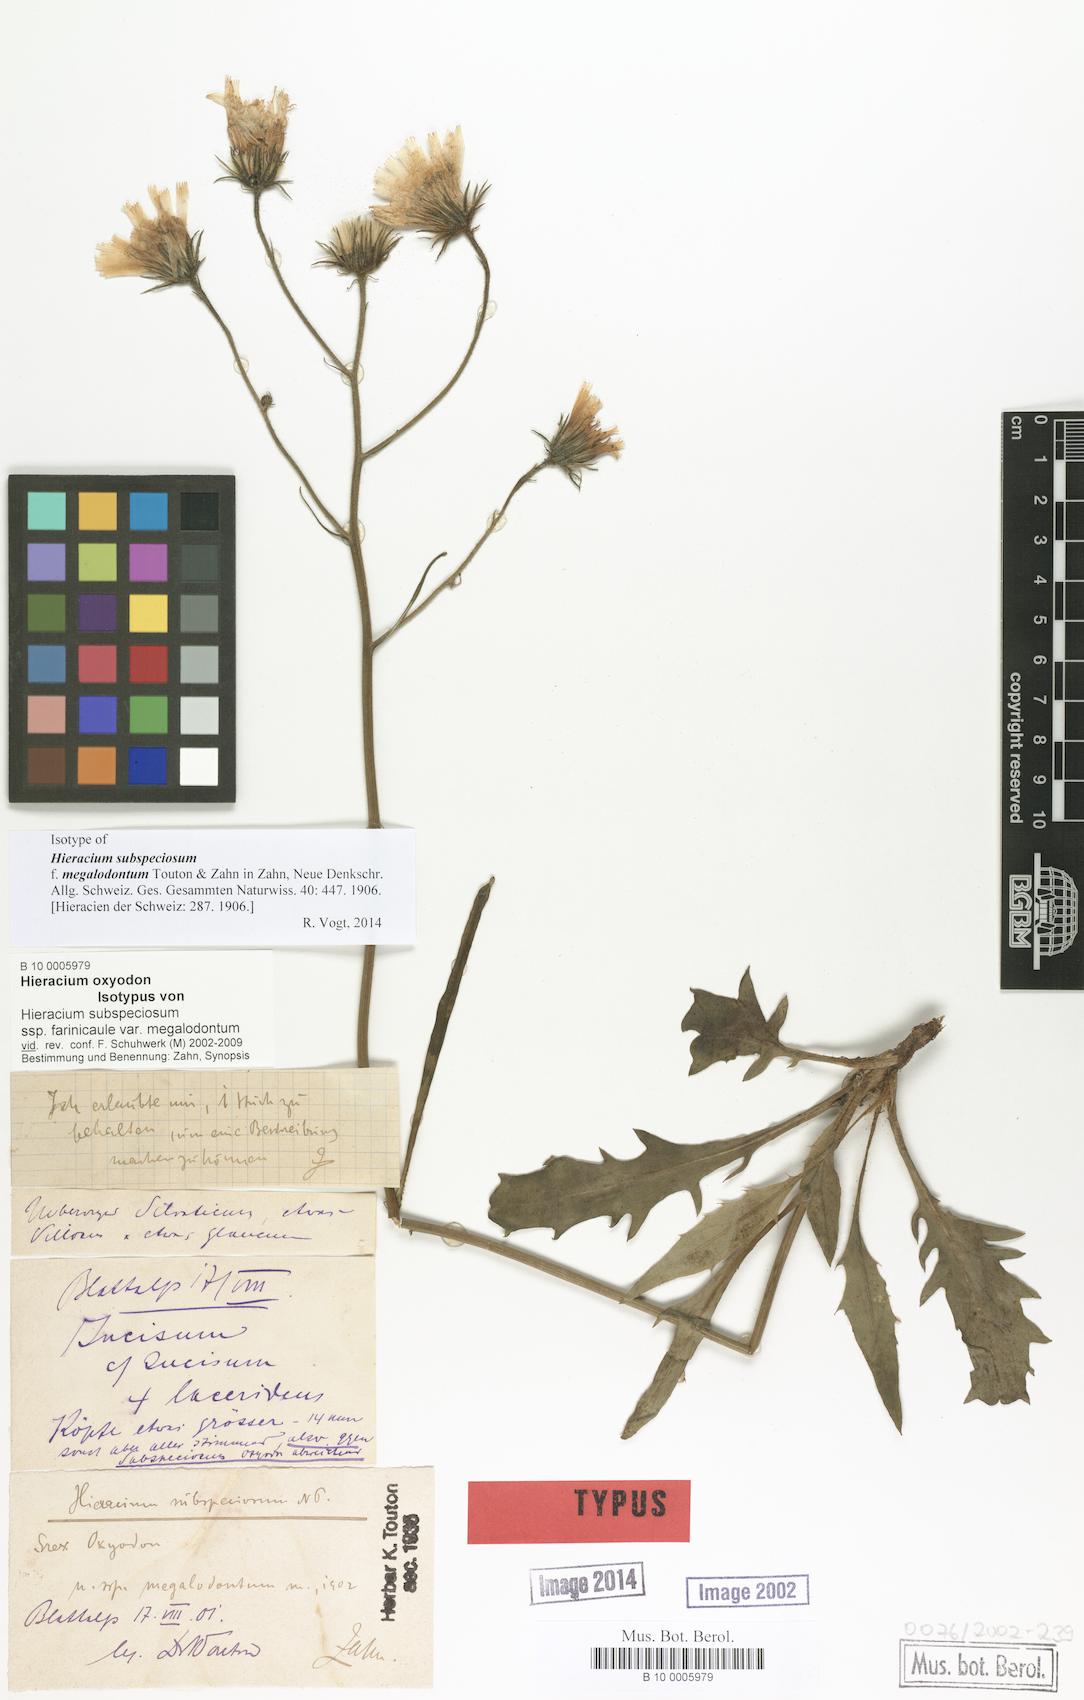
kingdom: Plantae
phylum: Tracheophyta
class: Magnoliopsida
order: Asterales
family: Asteraceae
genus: Hieracium
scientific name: Hieracium subspeciosum
